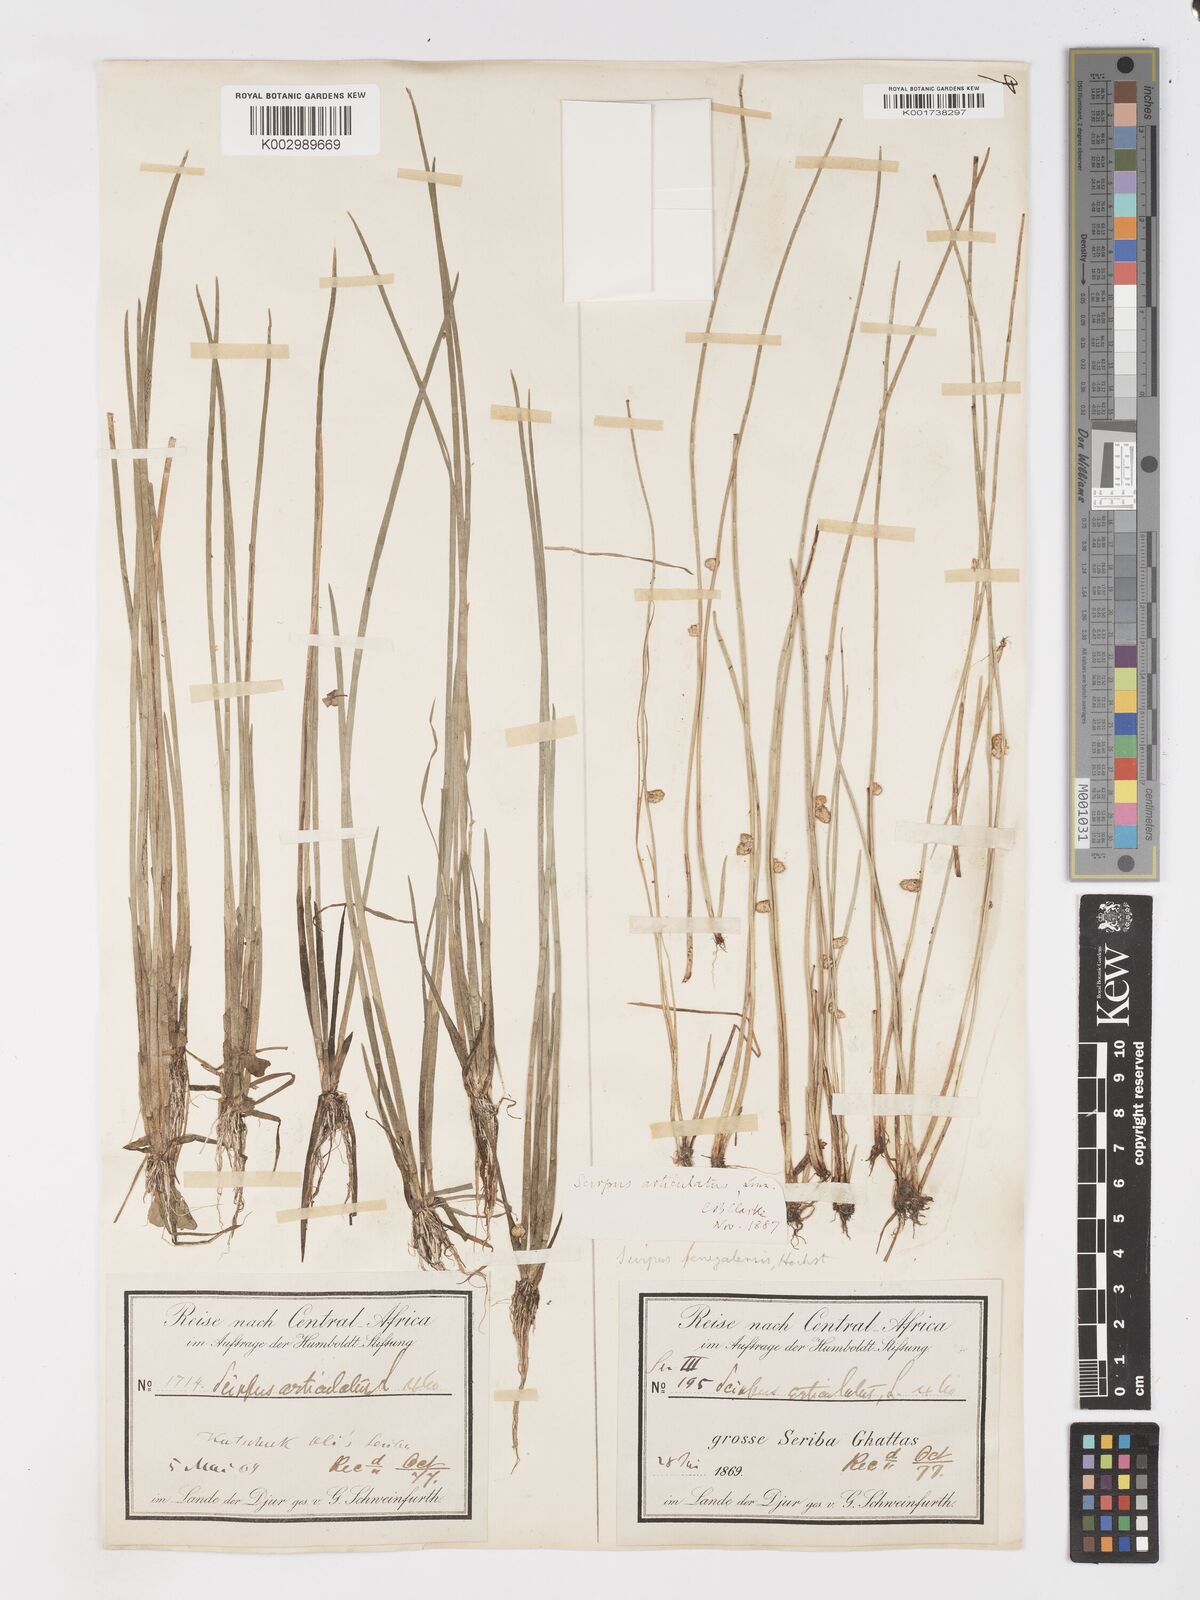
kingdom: Plantae
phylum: Tracheophyta
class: Liliopsida
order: Poales
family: Cyperaceae
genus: Schoenoplectiella
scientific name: Schoenoplectiella senegalensis
